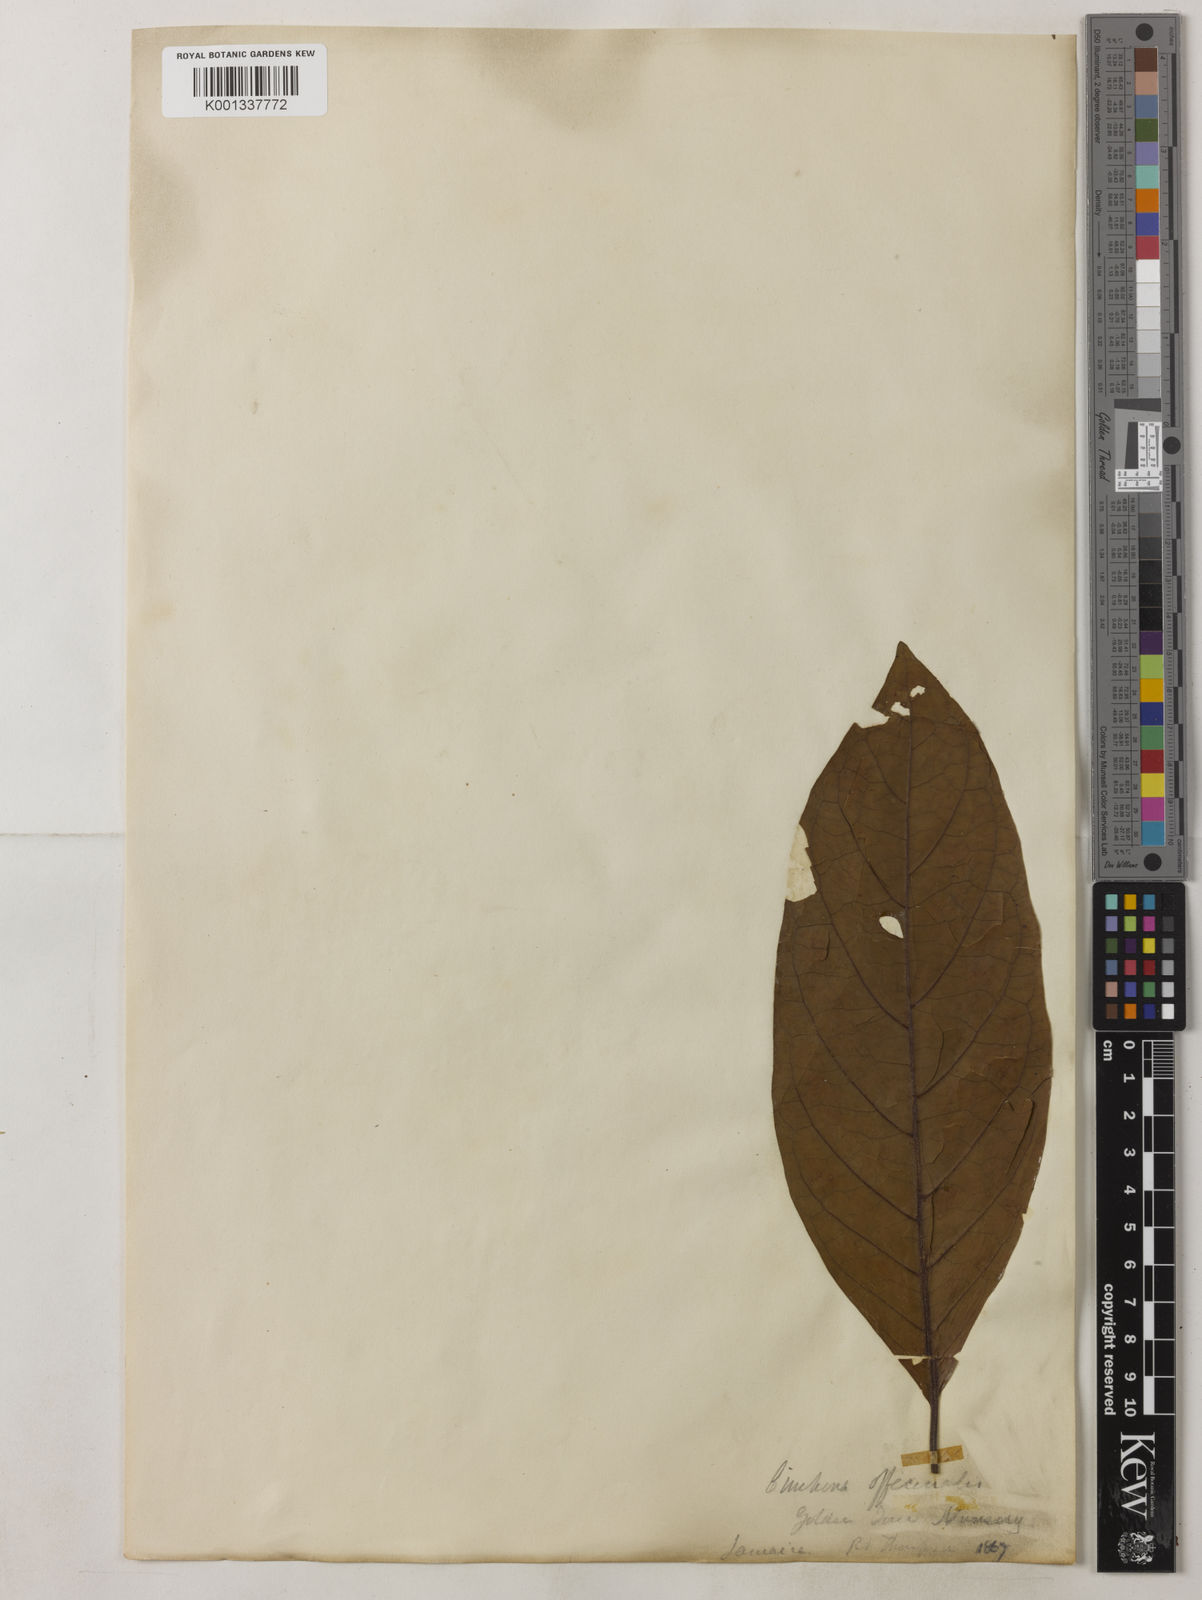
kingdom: Plantae
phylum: Tracheophyta
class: Magnoliopsida
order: Gentianales
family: Rubiaceae
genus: Cinchona
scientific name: Cinchona officinalis
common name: Lojabark
